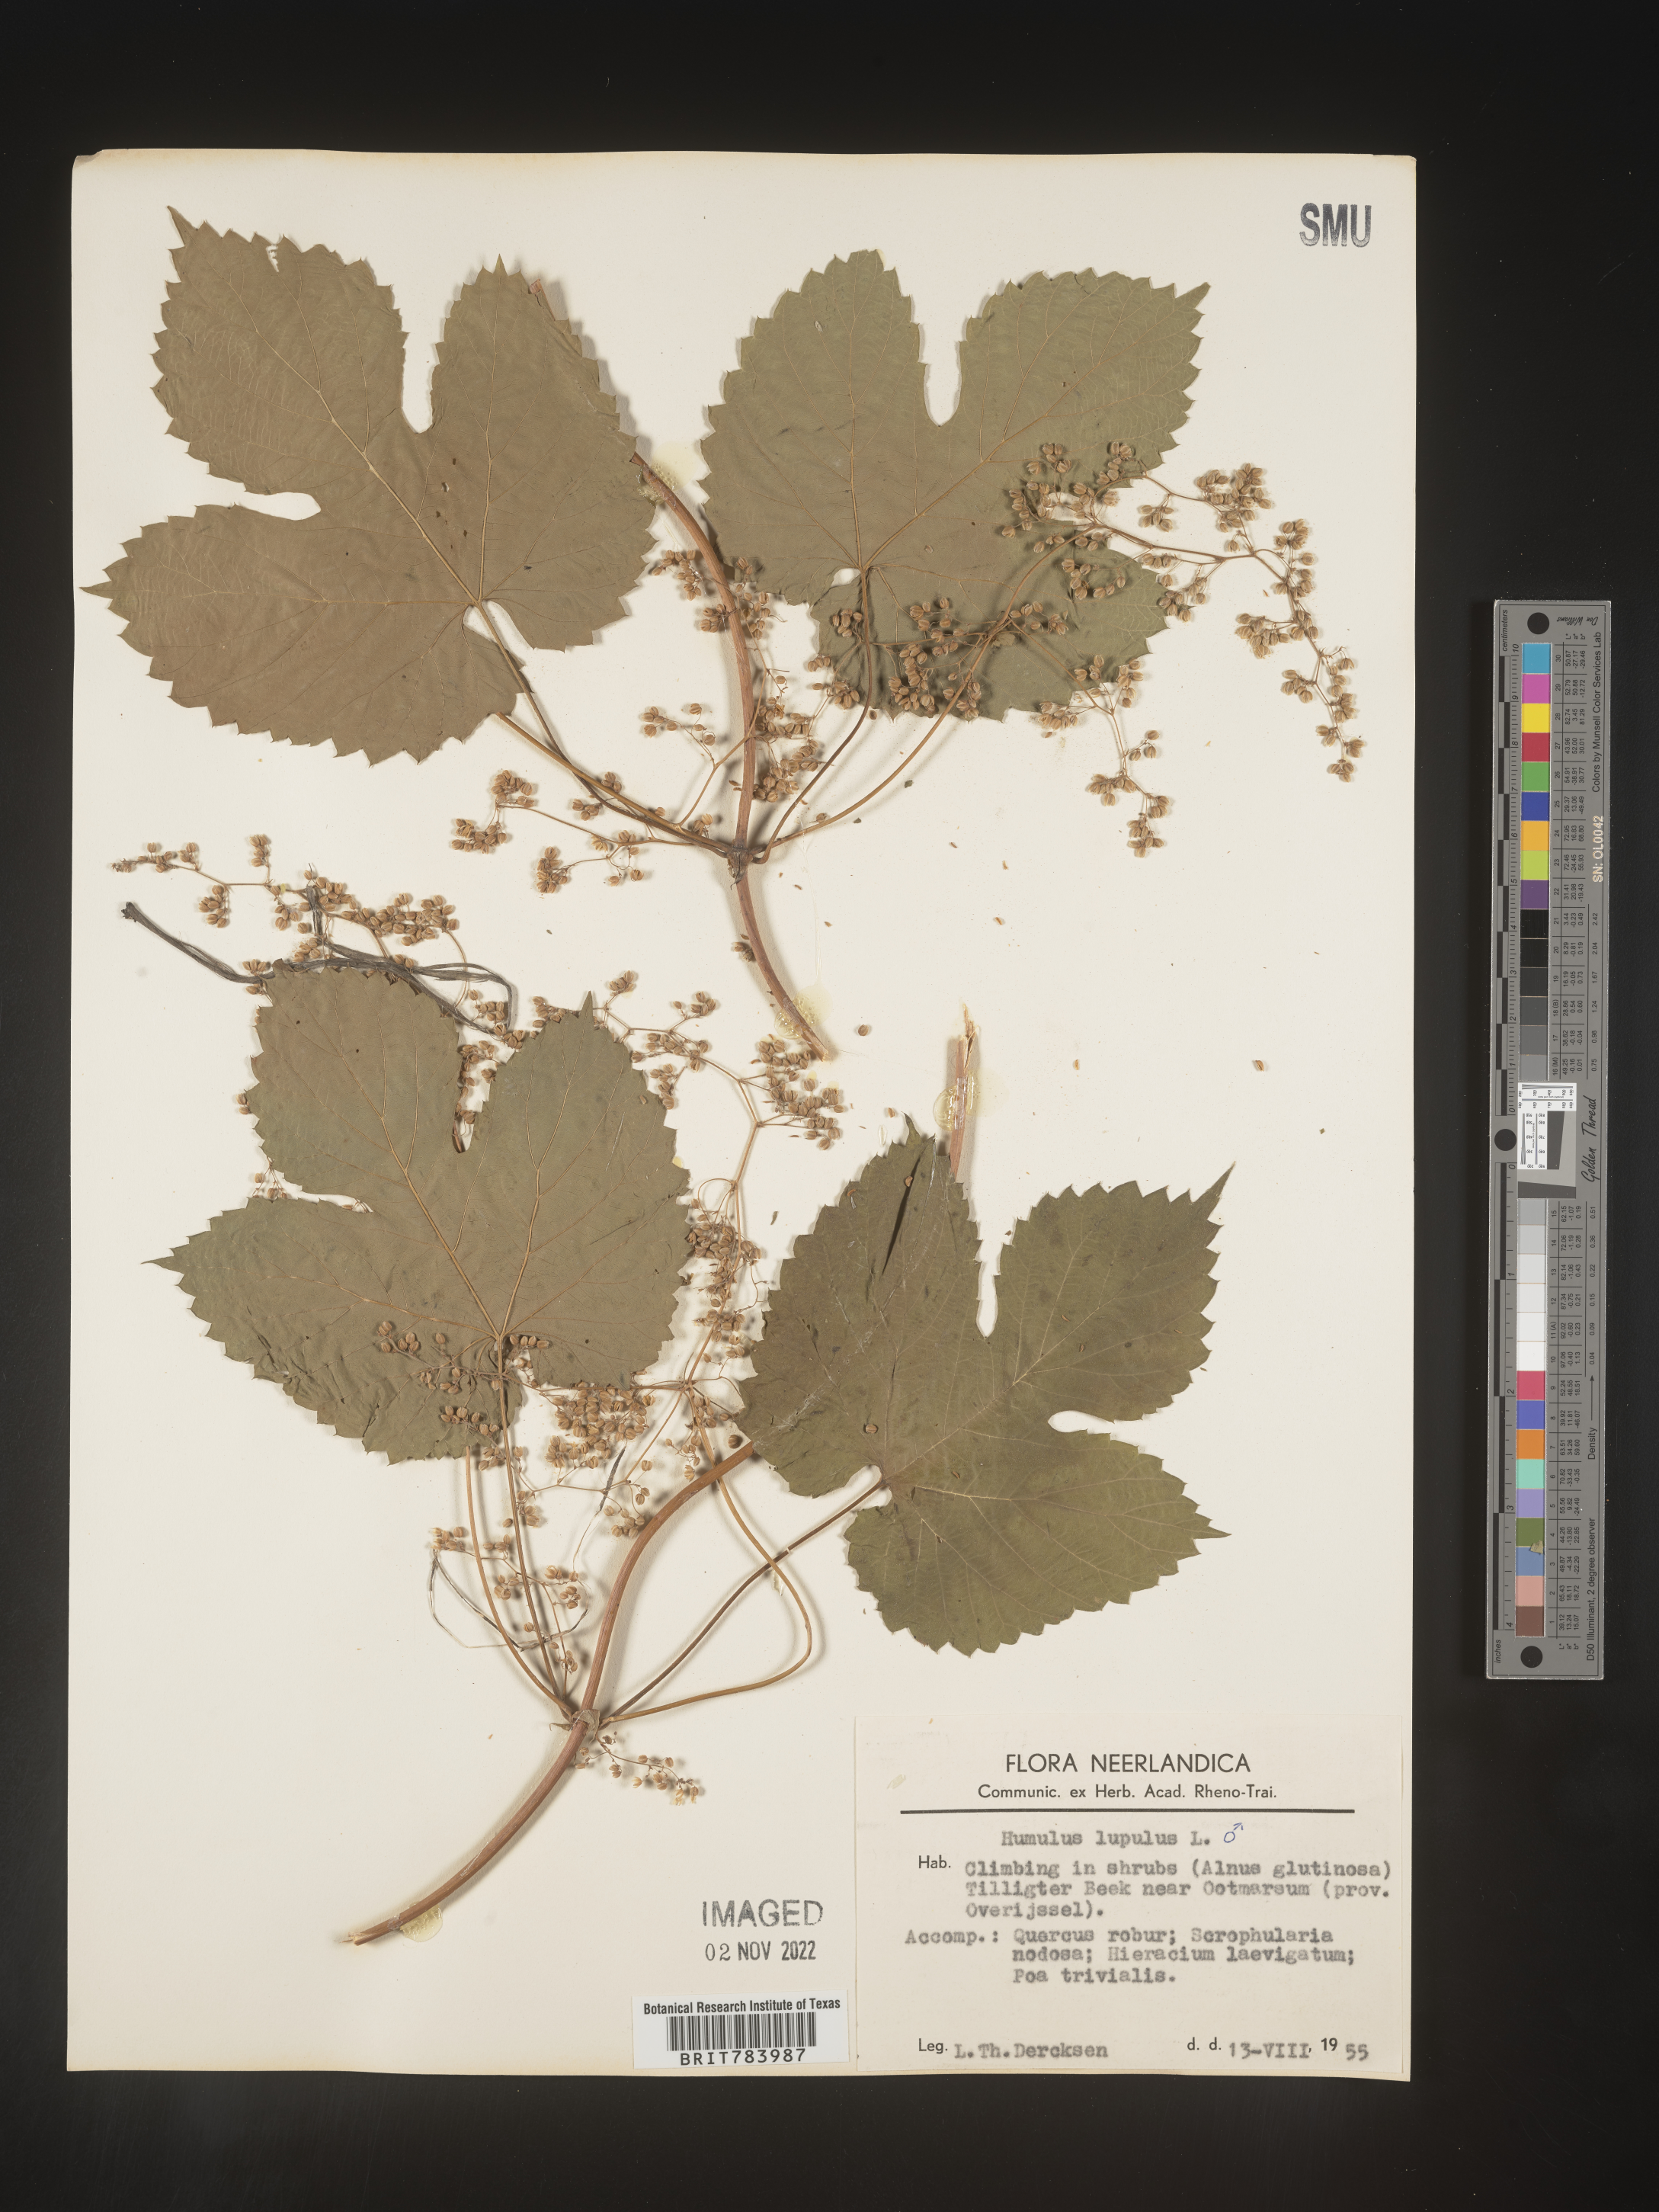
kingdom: Plantae
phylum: Tracheophyta
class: Magnoliopsida
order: Rosales
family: Cannabaceae
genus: Humulus
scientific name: Humulus
